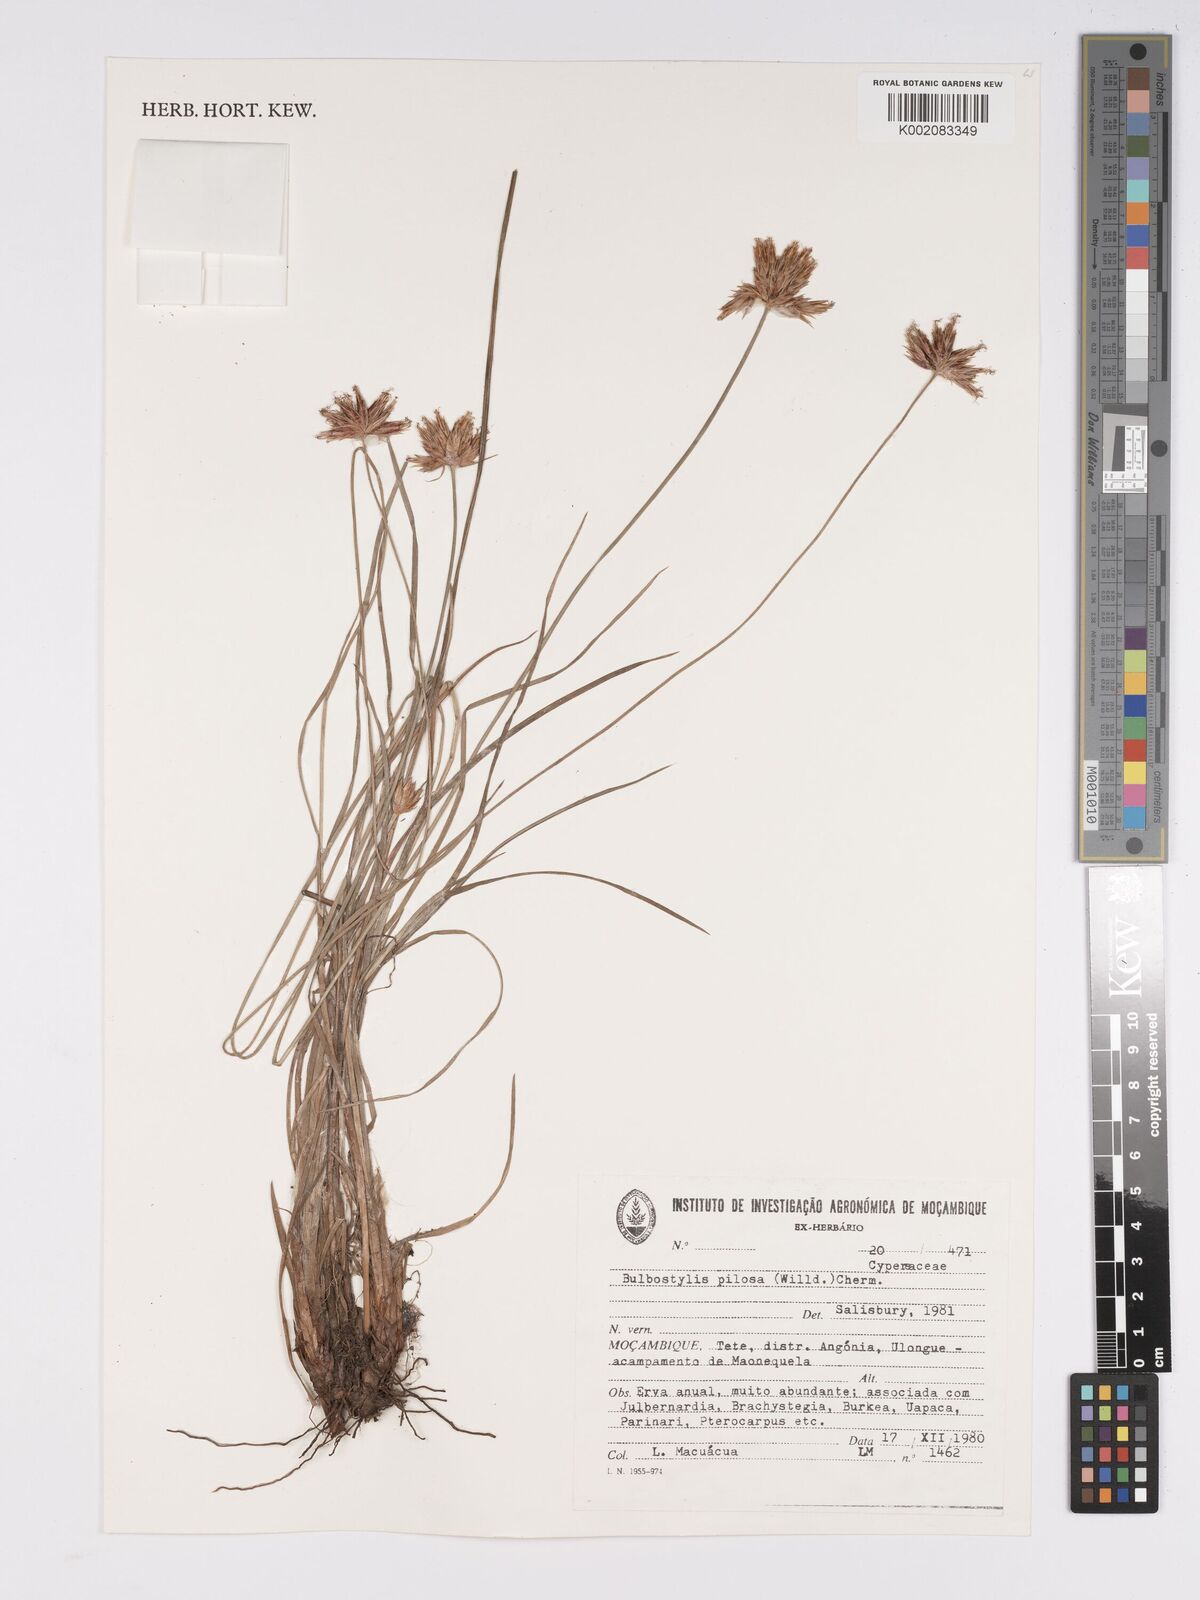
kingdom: Plantae
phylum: Tracheophyta
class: Liliopsida
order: Poales
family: Cyperaceae
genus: Bulbostylis
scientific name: Bulbostylis pilosa
